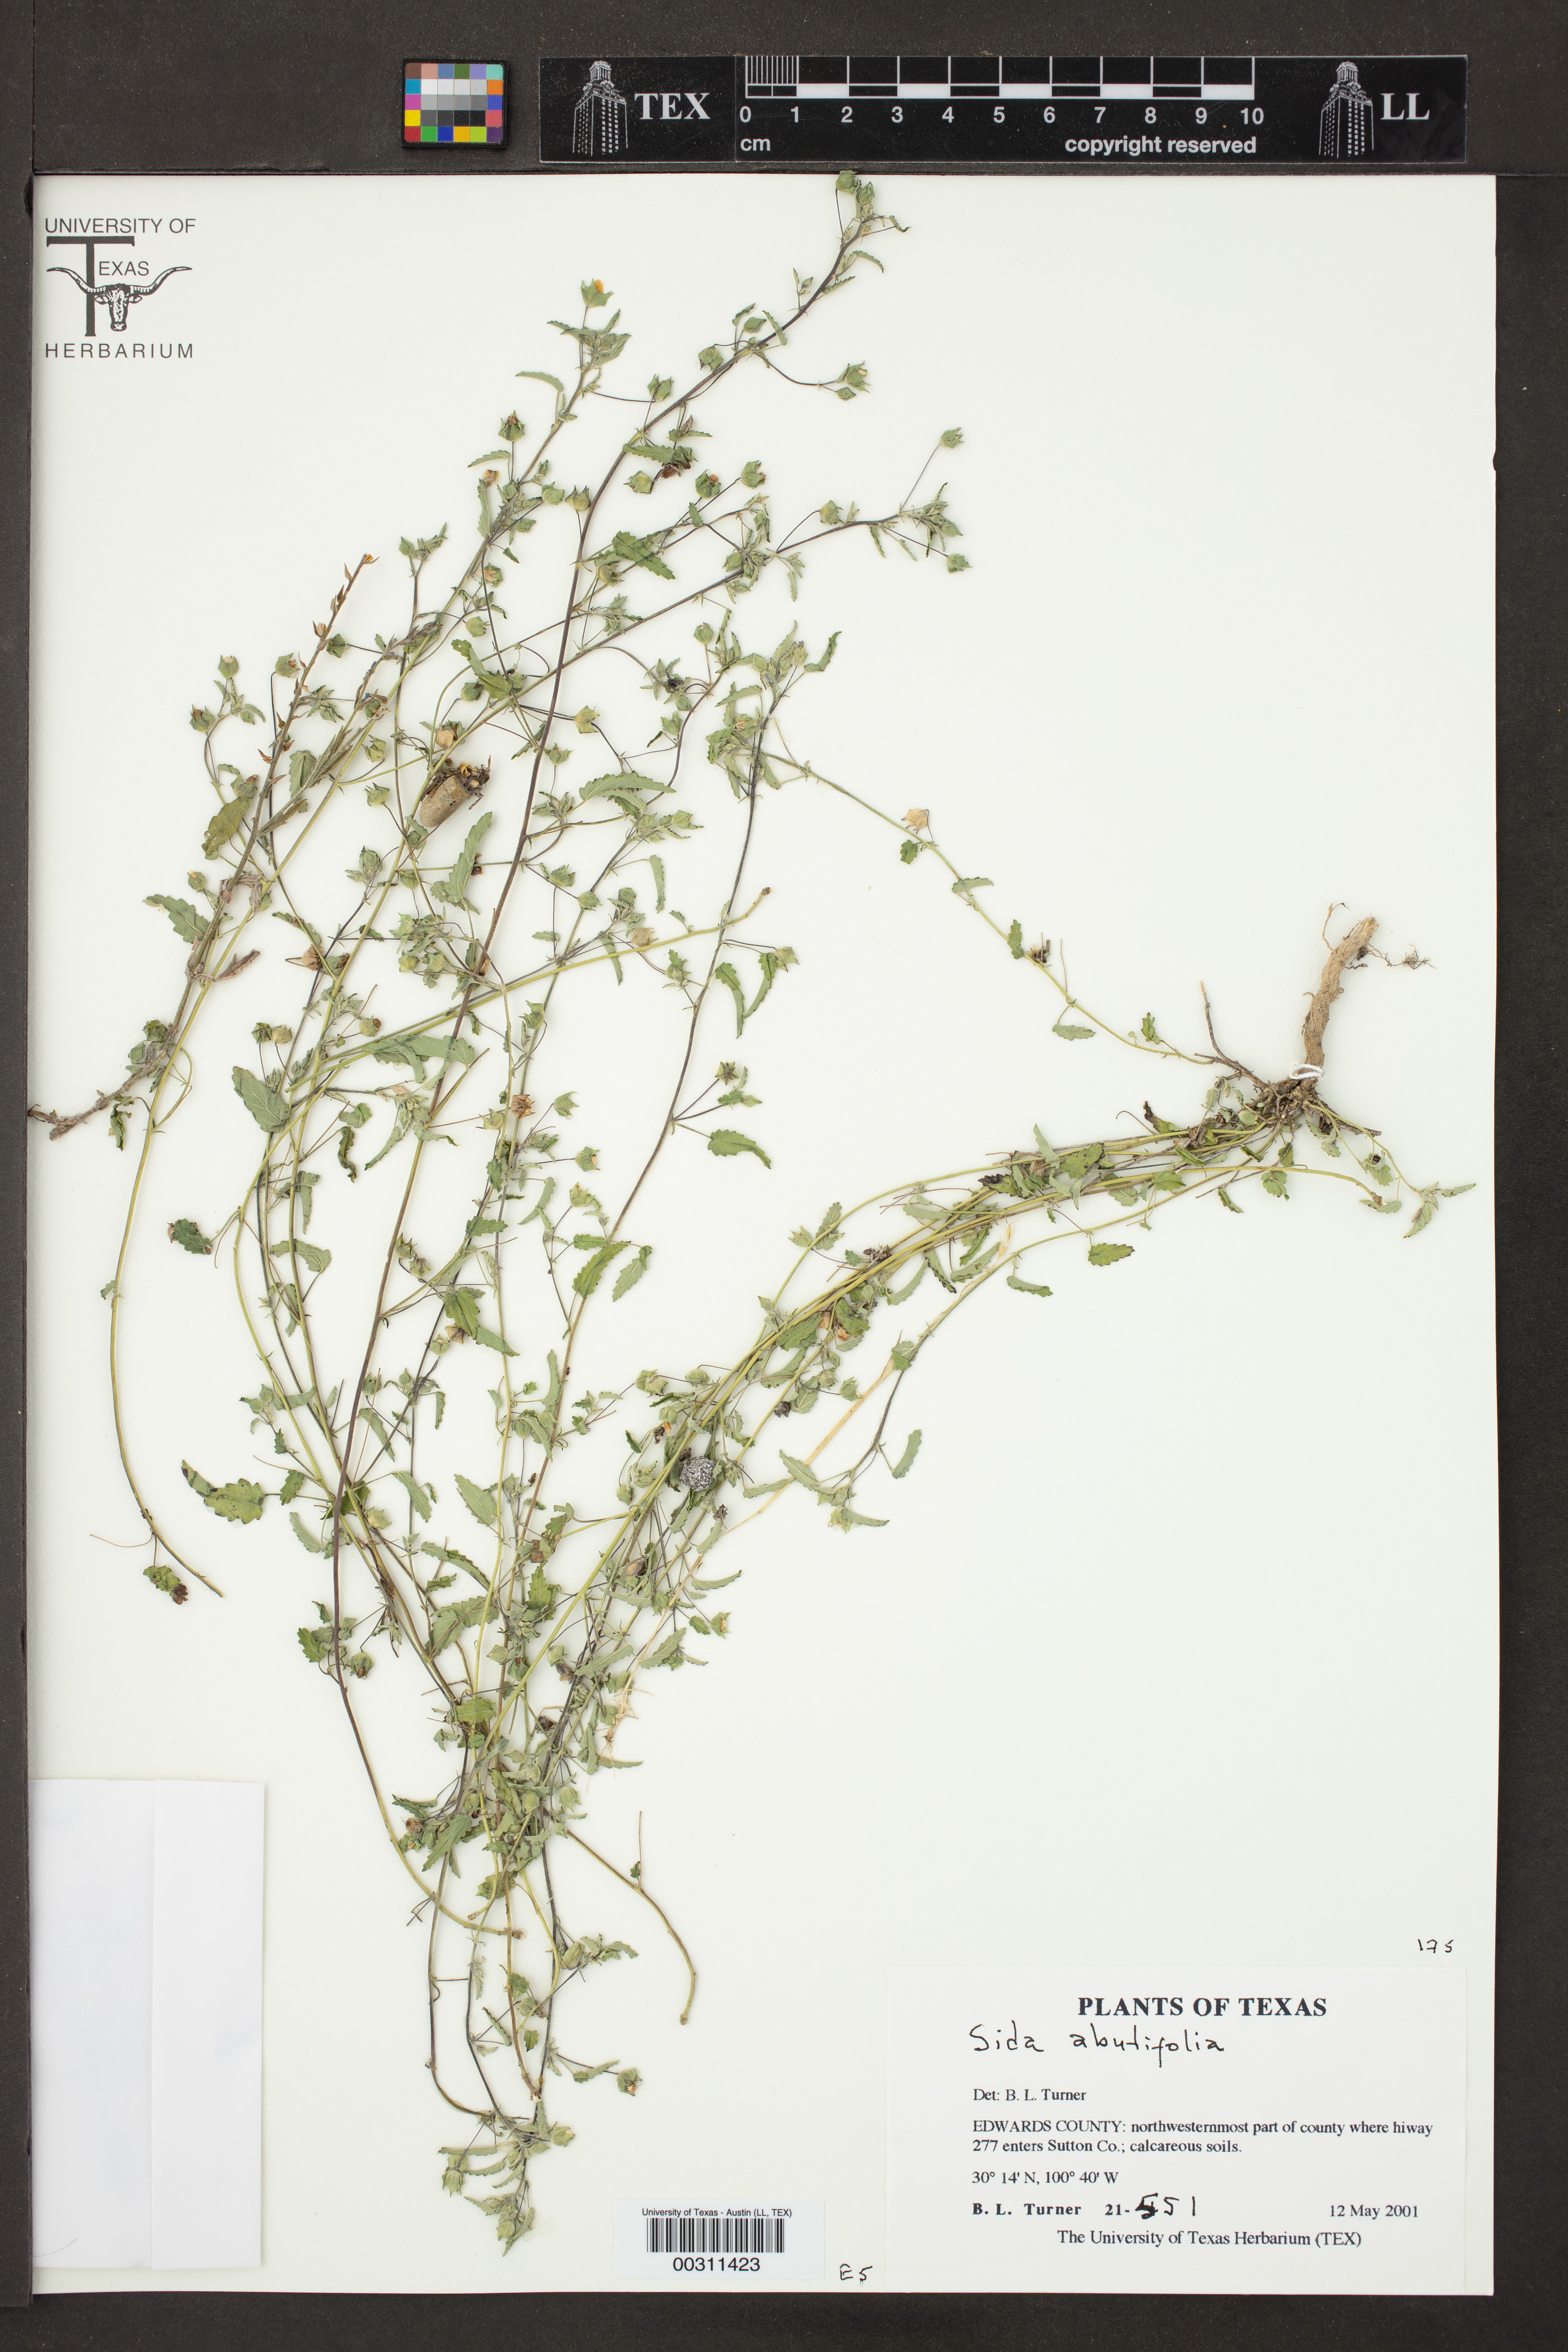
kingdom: Plantae
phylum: Tracheophyta
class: Magnoliopsida
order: Malvales
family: Malvaceae
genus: Sida
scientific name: Sida abutilifolia
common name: Spreading fanpetals
